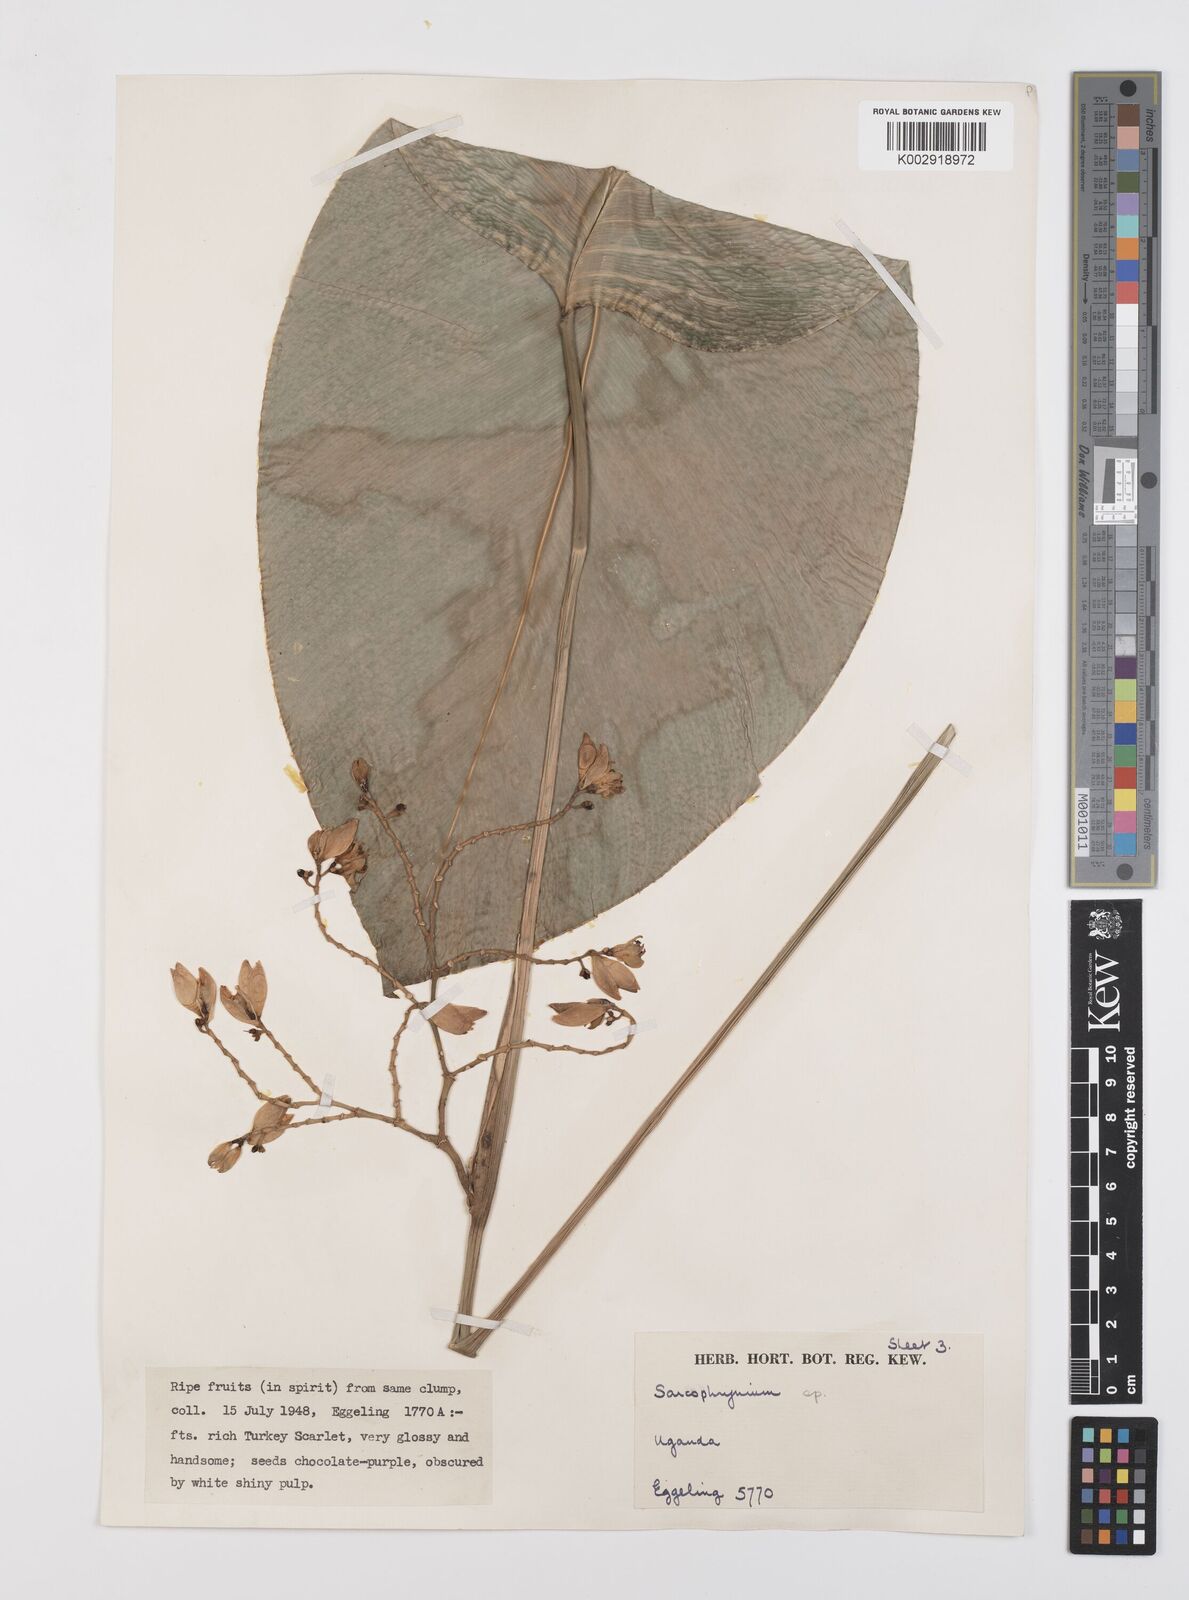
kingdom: Plantae
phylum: Tracheophyta
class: Liliopsida
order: Zingiberales
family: Marantaceae
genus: Megaphrynium
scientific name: Megaphrynium gabonense
